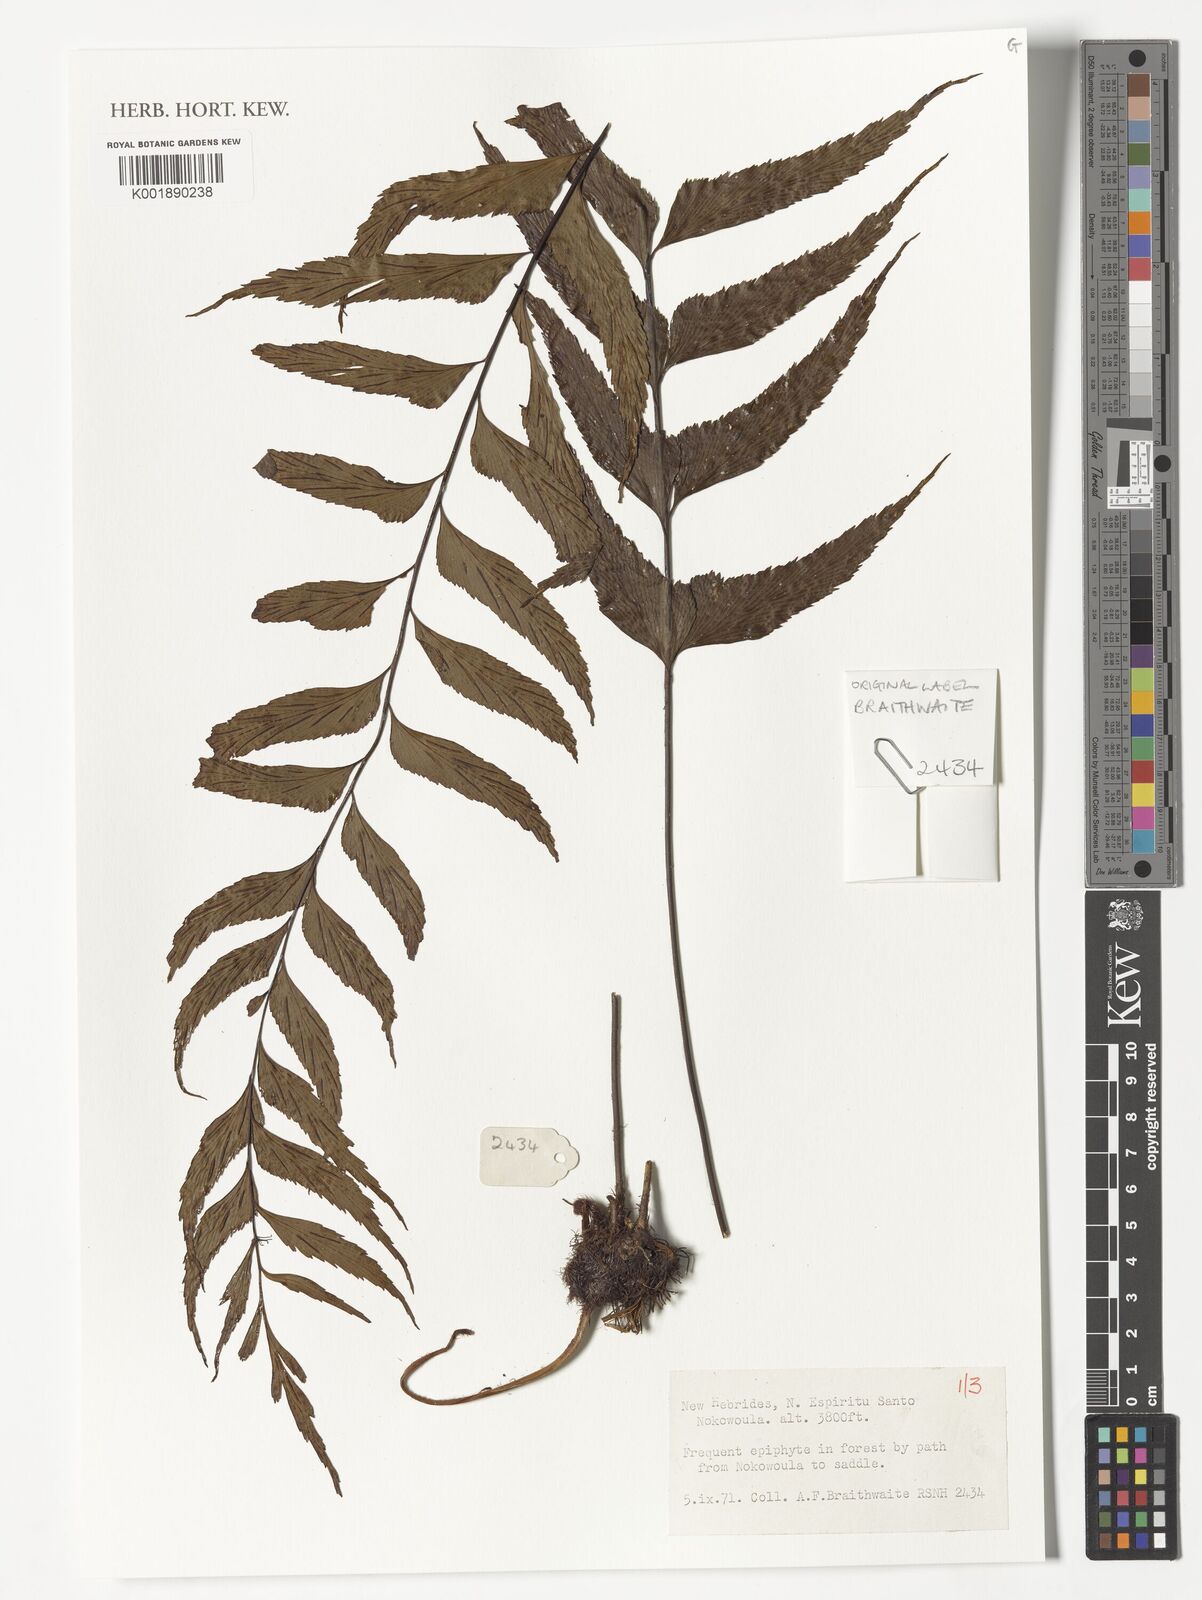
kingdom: Plantae
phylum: Tracheophyta
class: Polypodiopsida
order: Polypodiales
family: Aspleniaceae
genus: Asplenium
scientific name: Asplenium
